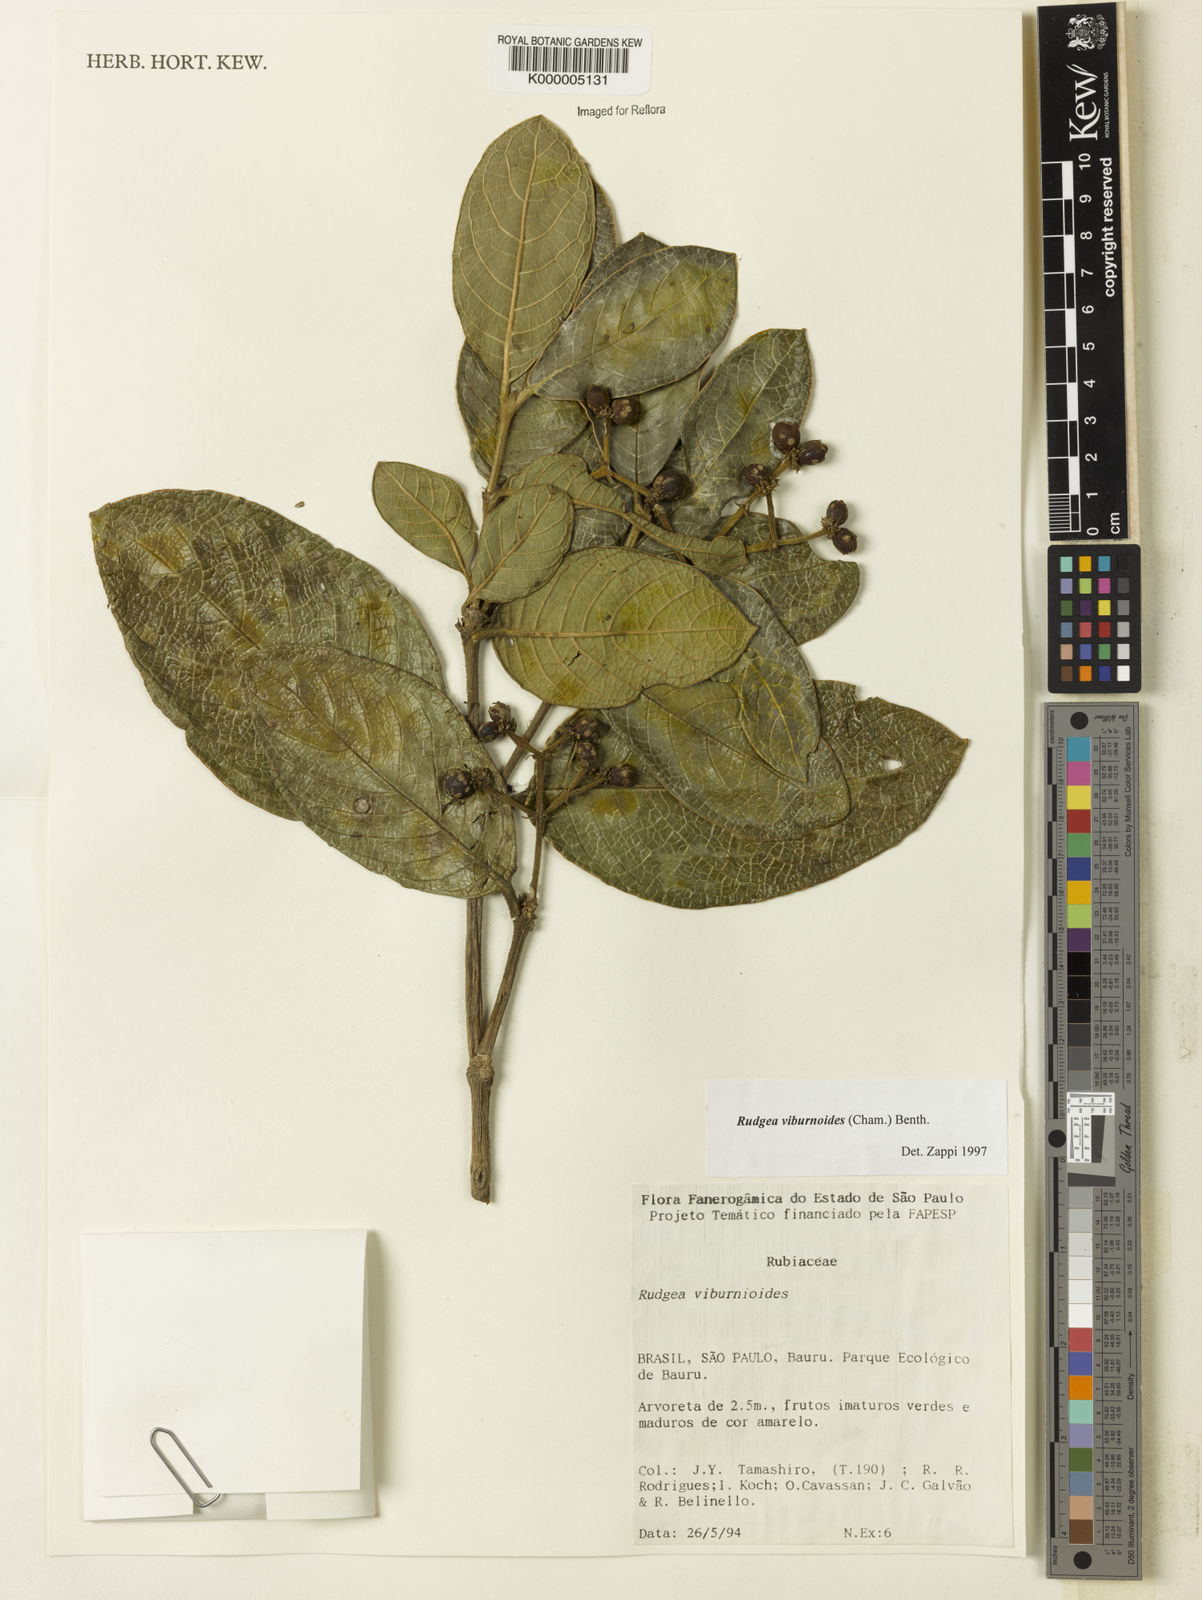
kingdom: Plantae
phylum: Tracheophyta
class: Magnoliopsida
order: Gentianales
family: Rubiaceae
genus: Rudgea
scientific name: Rudgea viburnoides
